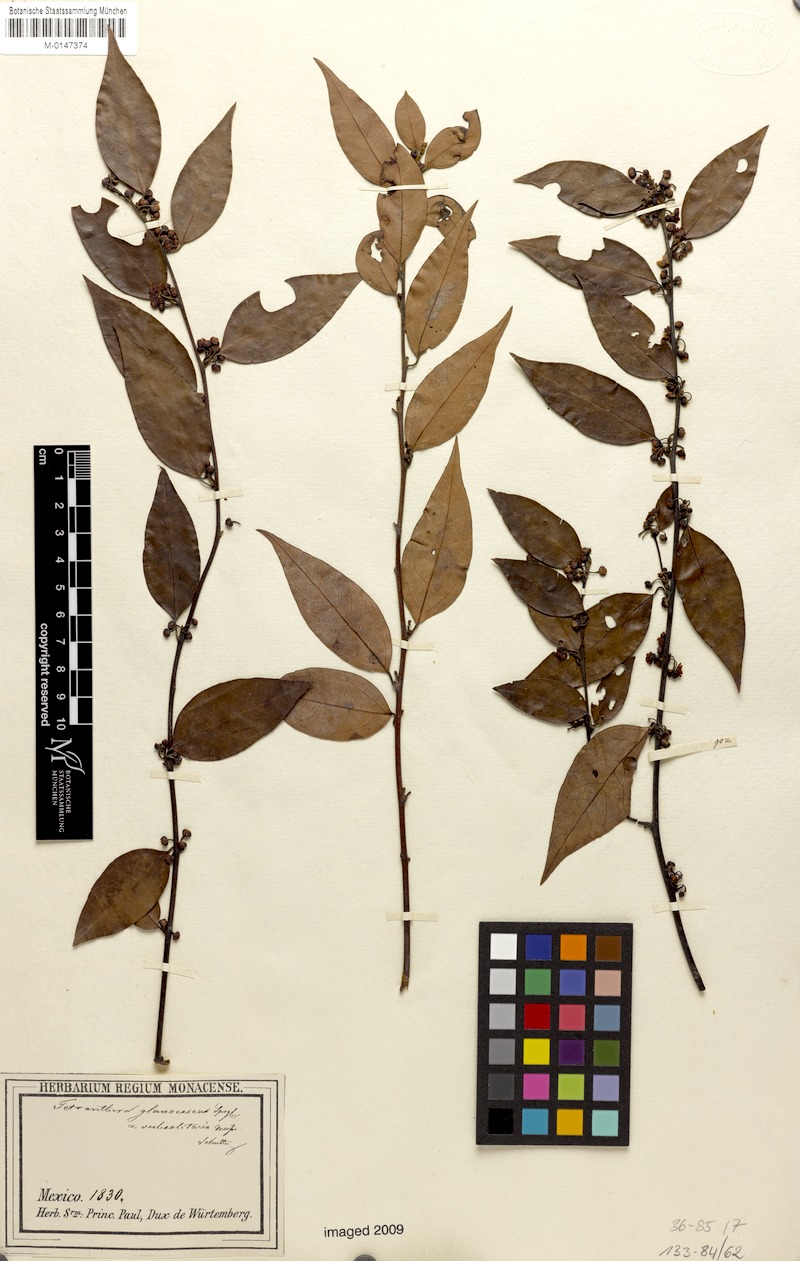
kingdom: Plantae
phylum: Tracheophyta
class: Magnoliopsida
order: Laurales
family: Lauraceae
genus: Licaria
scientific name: Licaria triandra
